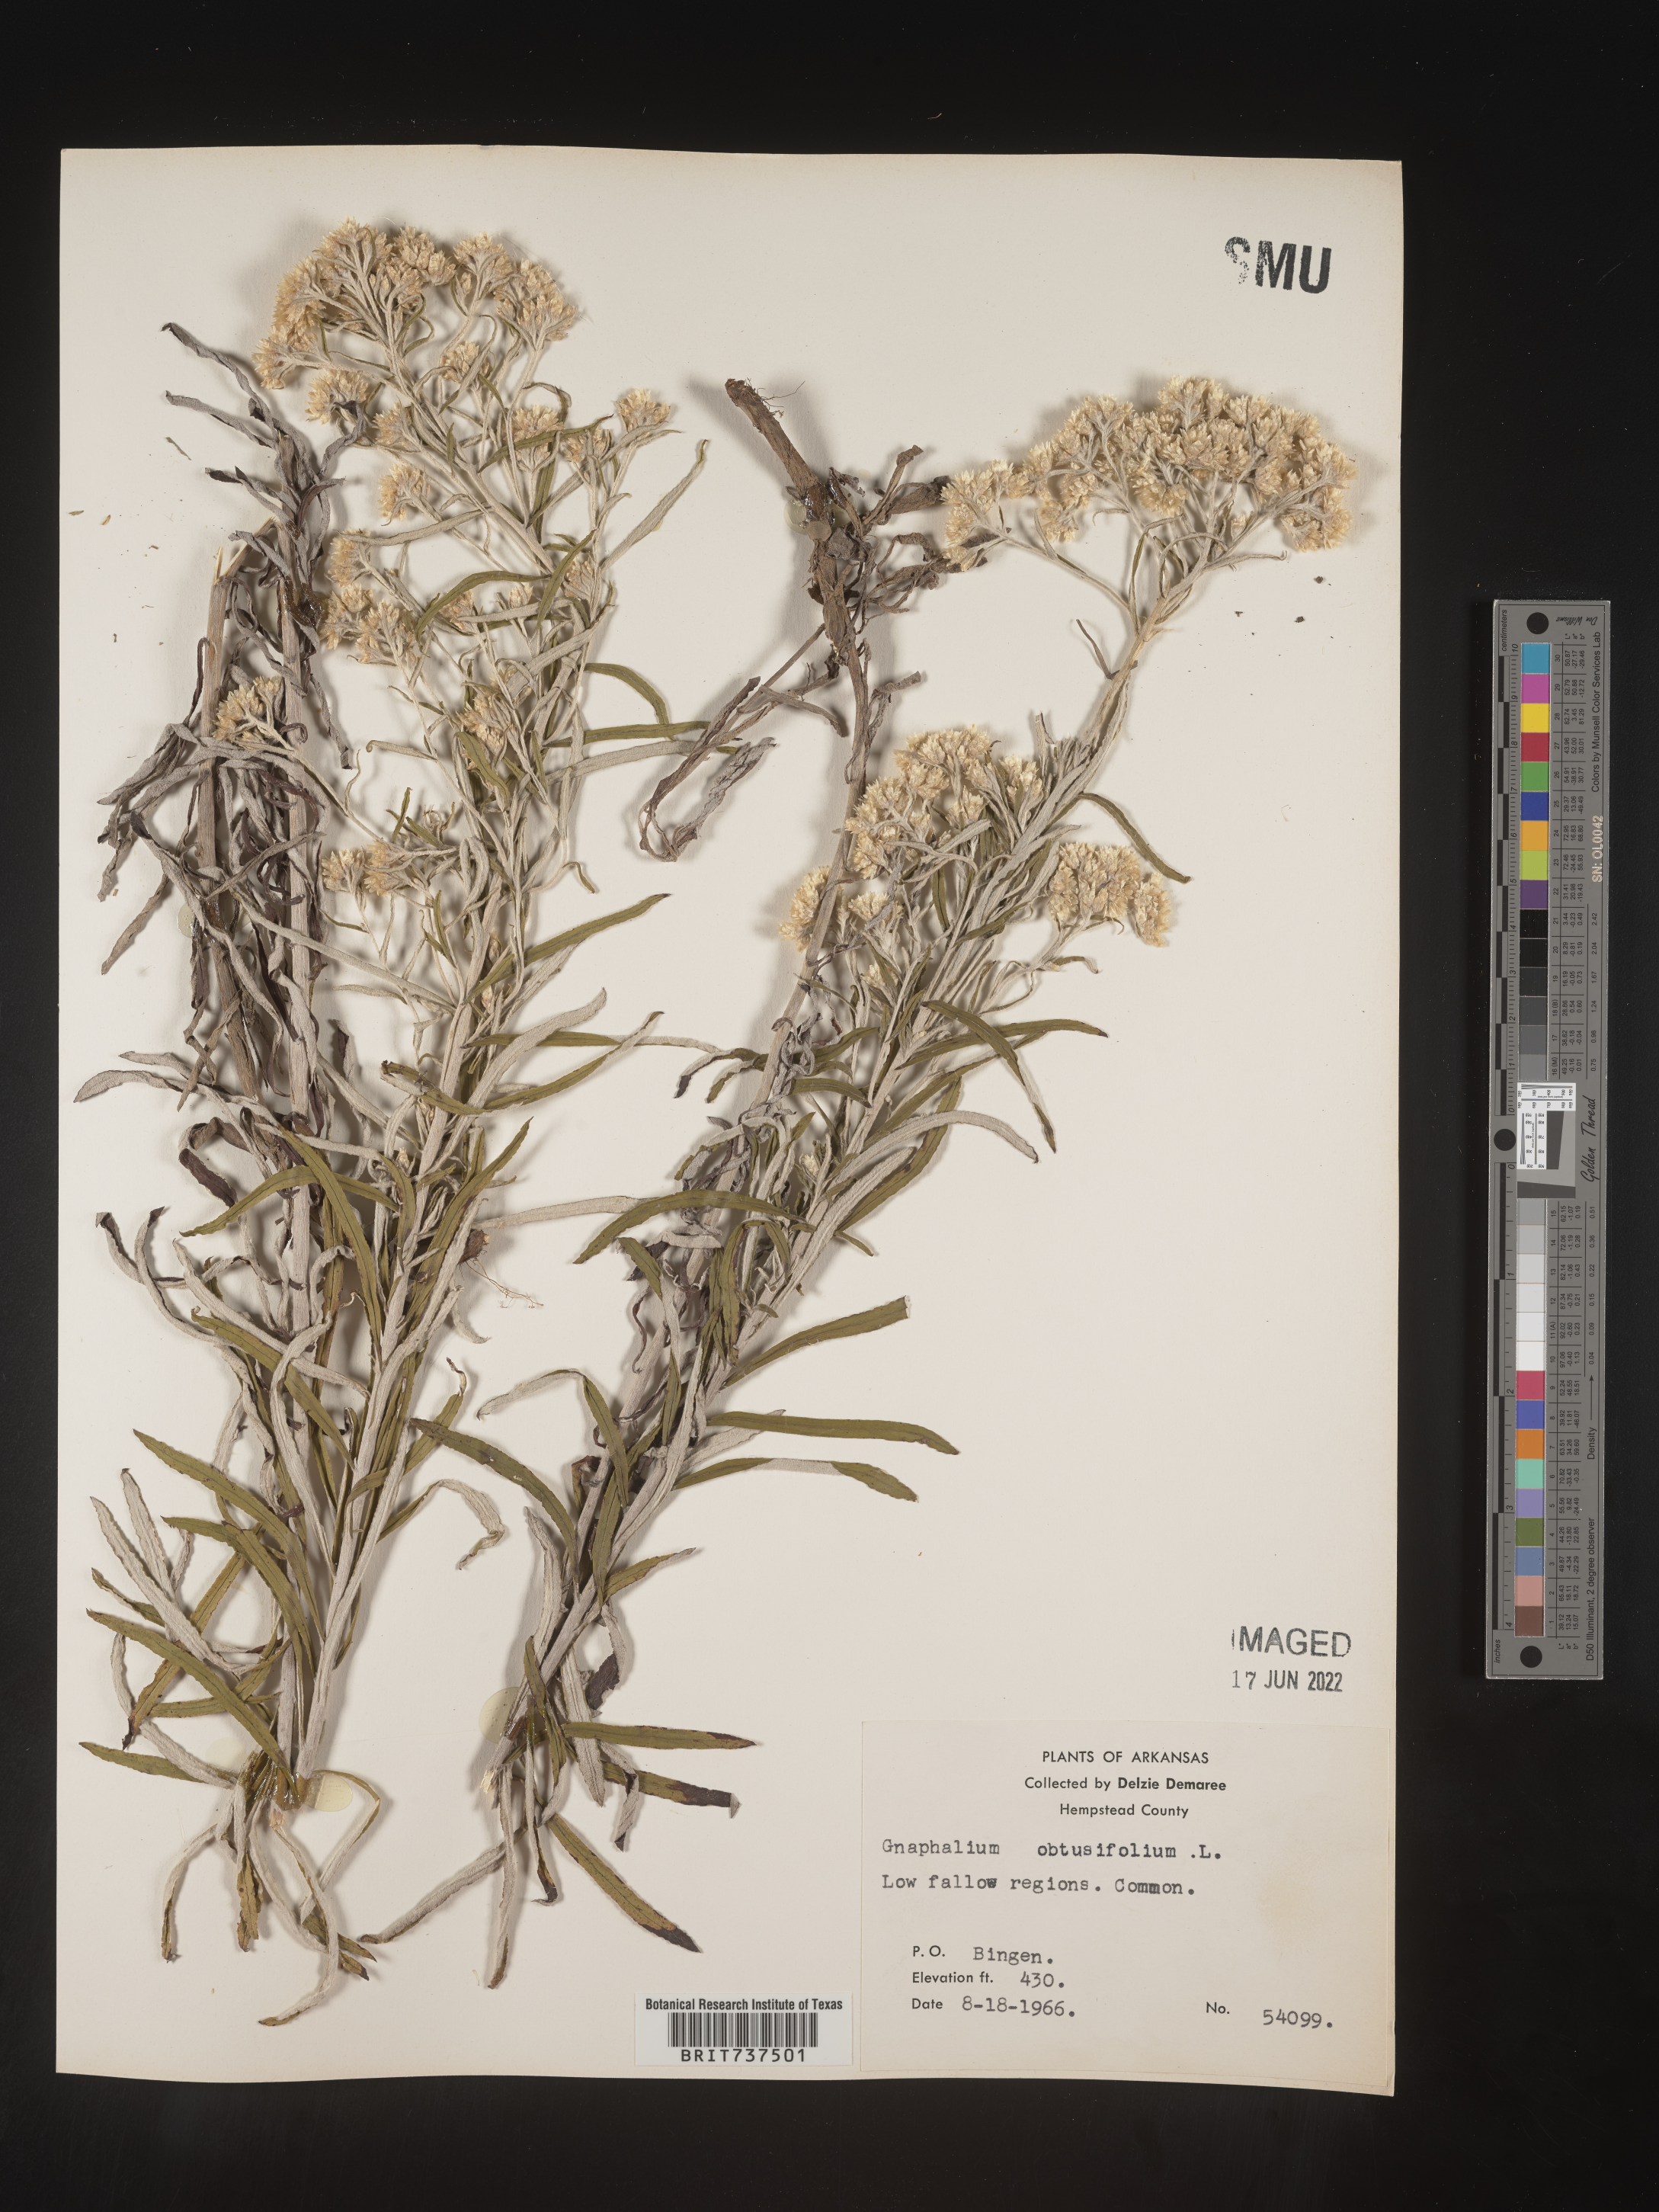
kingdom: Plantae
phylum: Tracheophyta
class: Magnoliopsida
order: Asterales
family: Asteraceae
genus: Pseudognaphalium
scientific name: Pseudognaphalium obtusifolium
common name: Eastern rabbit-tobacco
